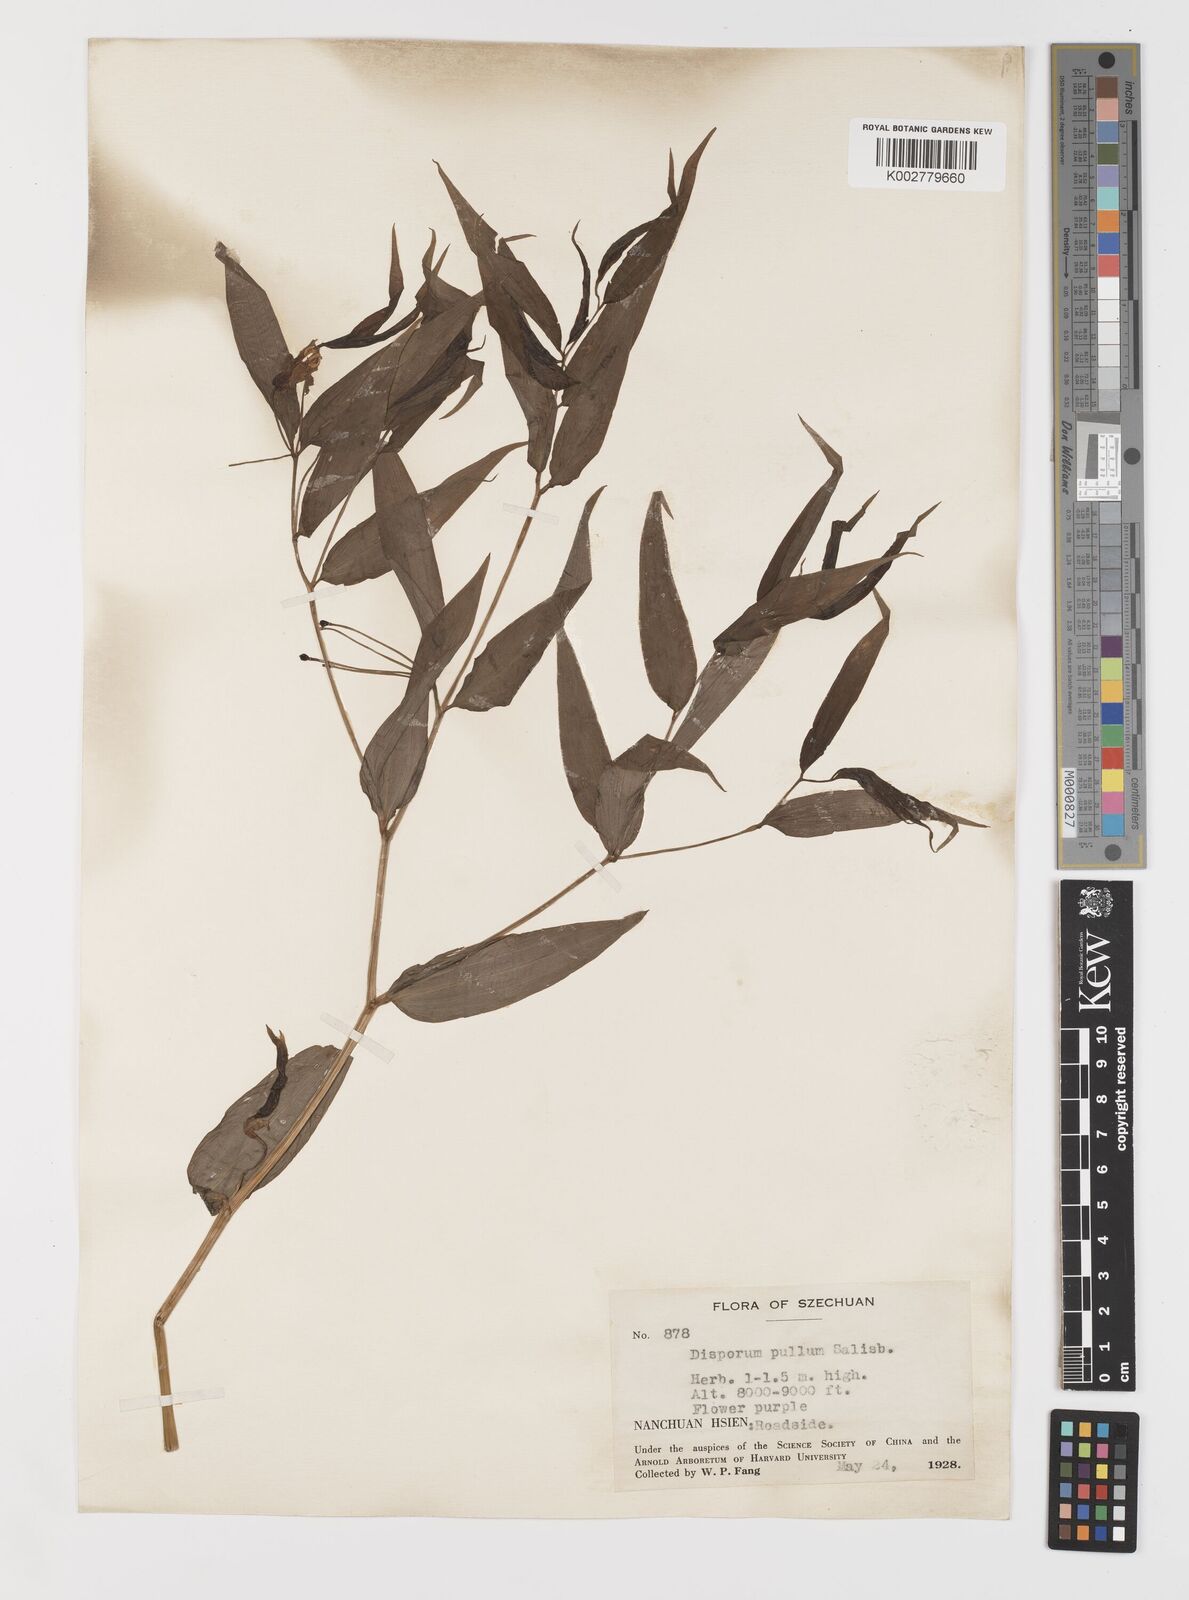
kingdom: Plantae
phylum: Tracheophyta
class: Liliopsida
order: Liliales
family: Colchicaceae
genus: Disporum
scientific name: Disporum cantoniense
